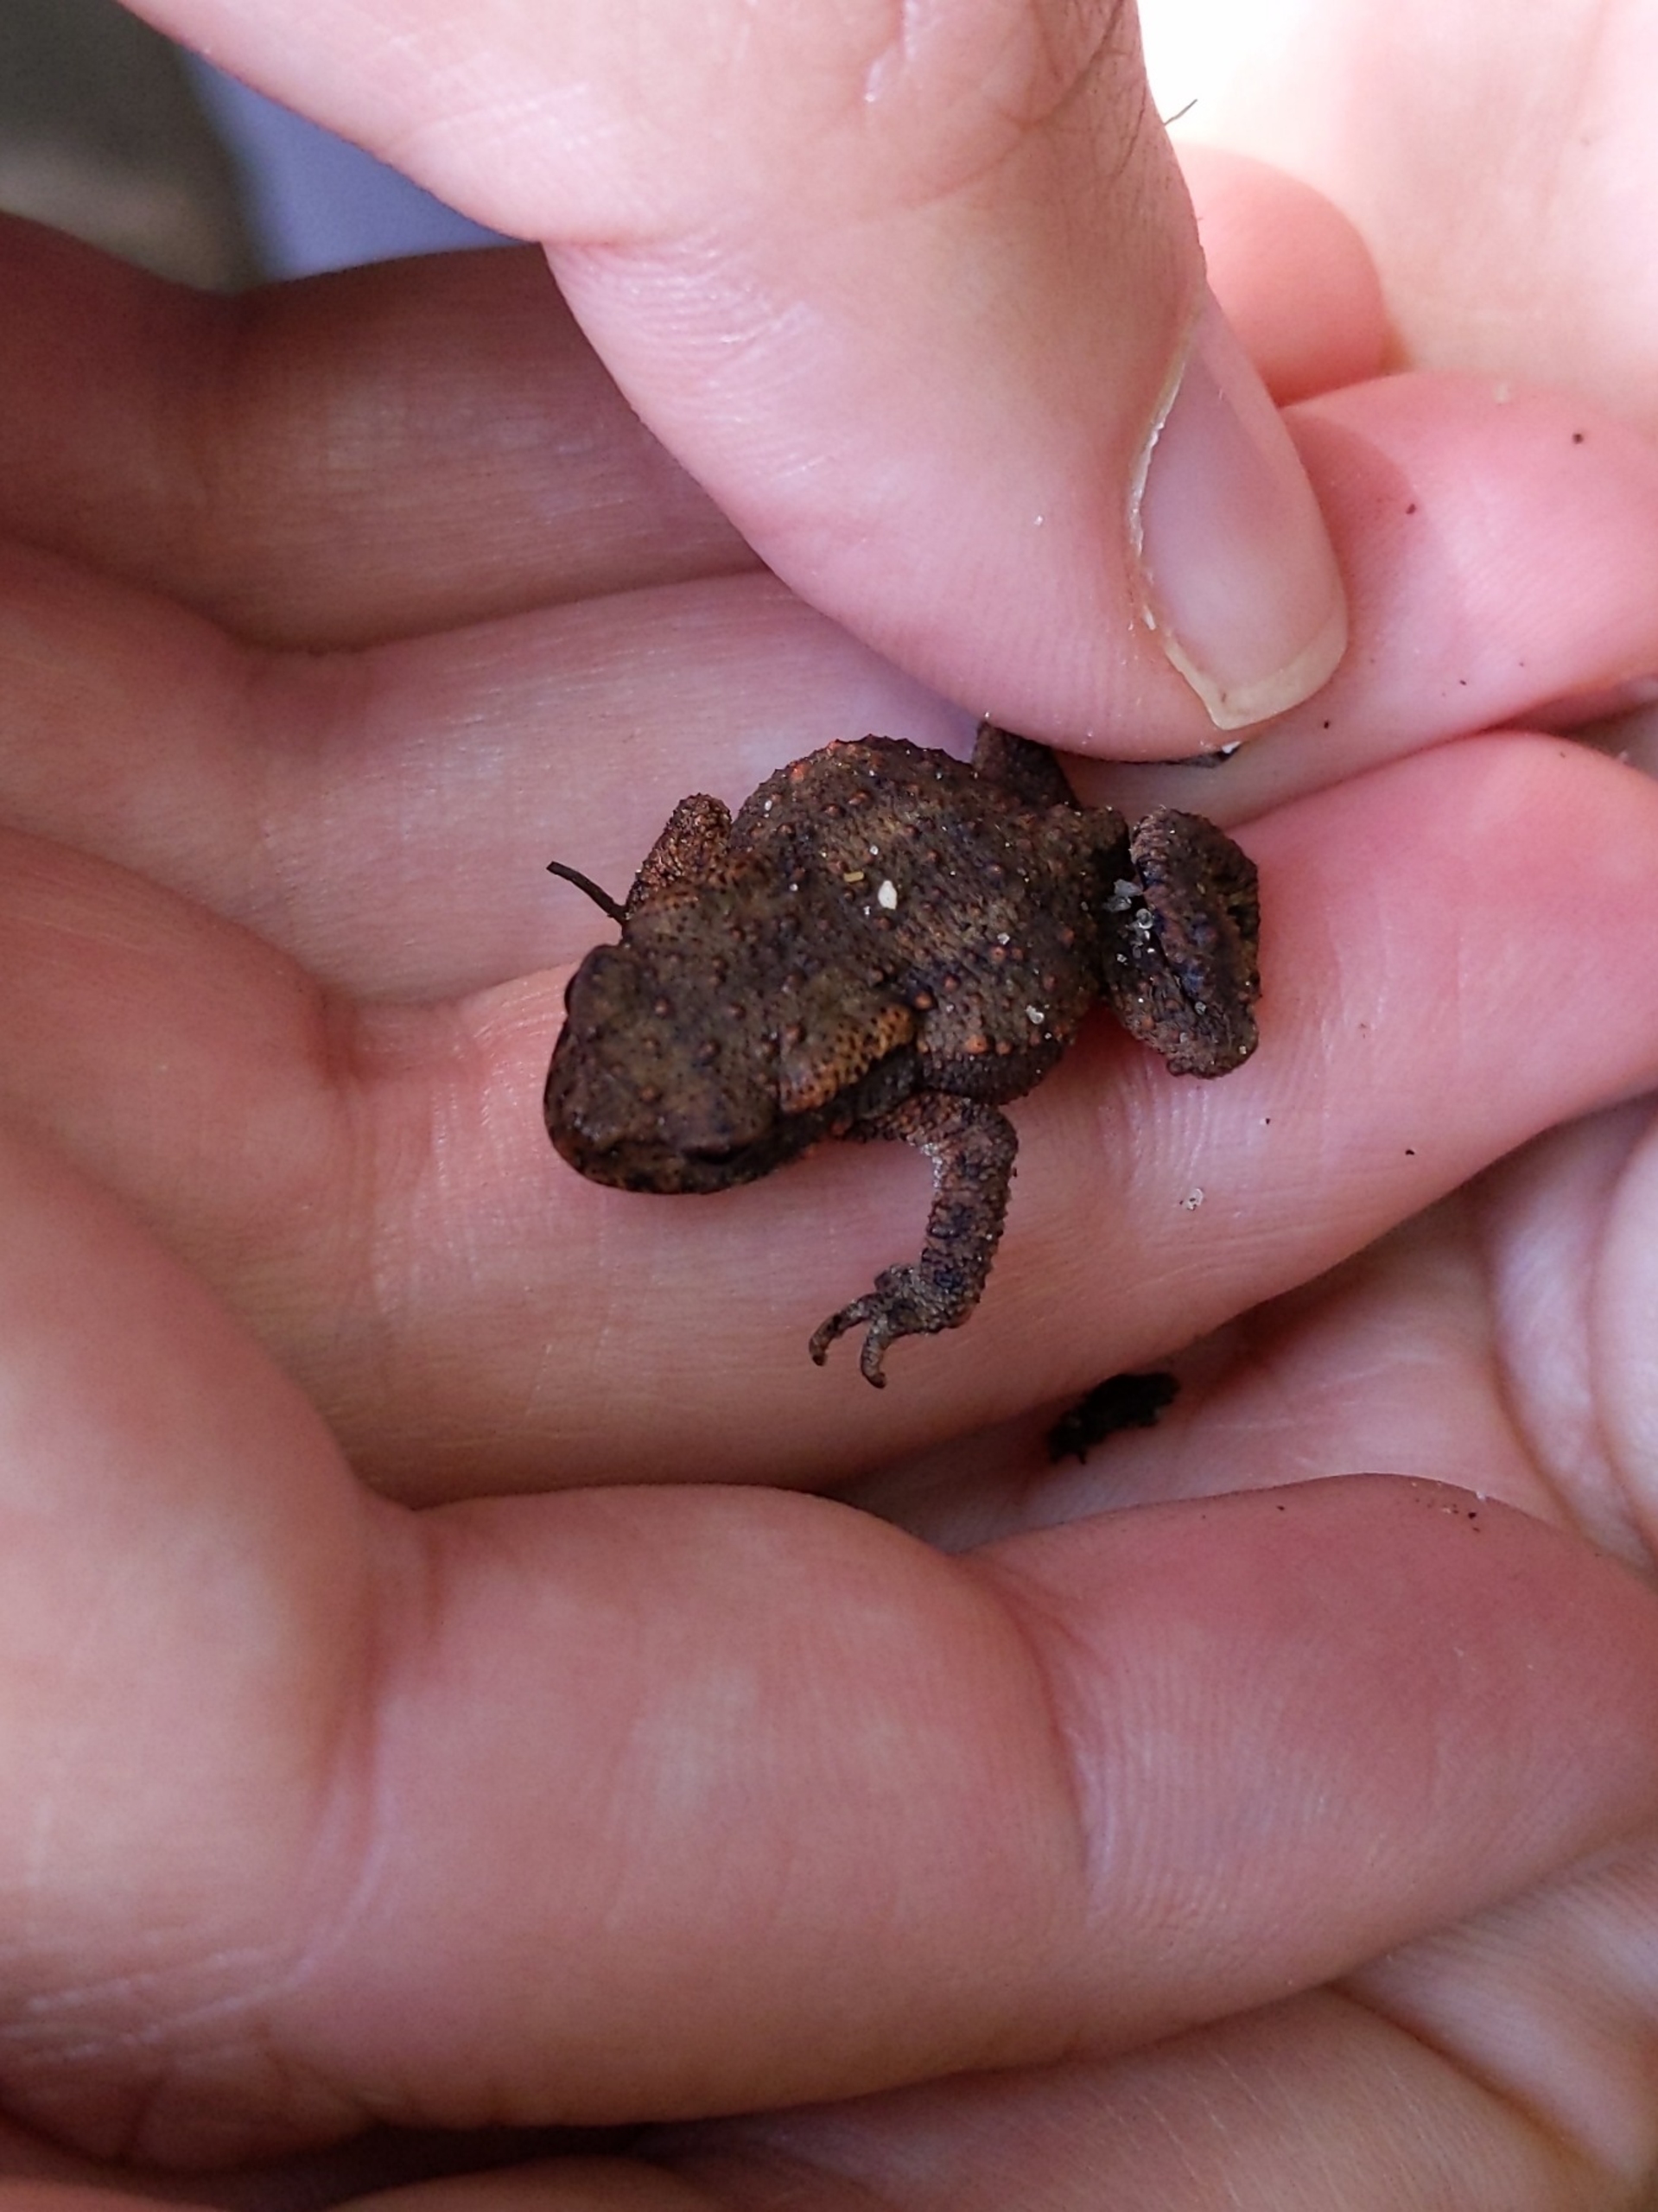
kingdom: Animalia
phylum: Chordata
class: Amphibia
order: Anura
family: Bufonidae
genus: Bufo
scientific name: Bufo bufo
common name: Skrubtudse
